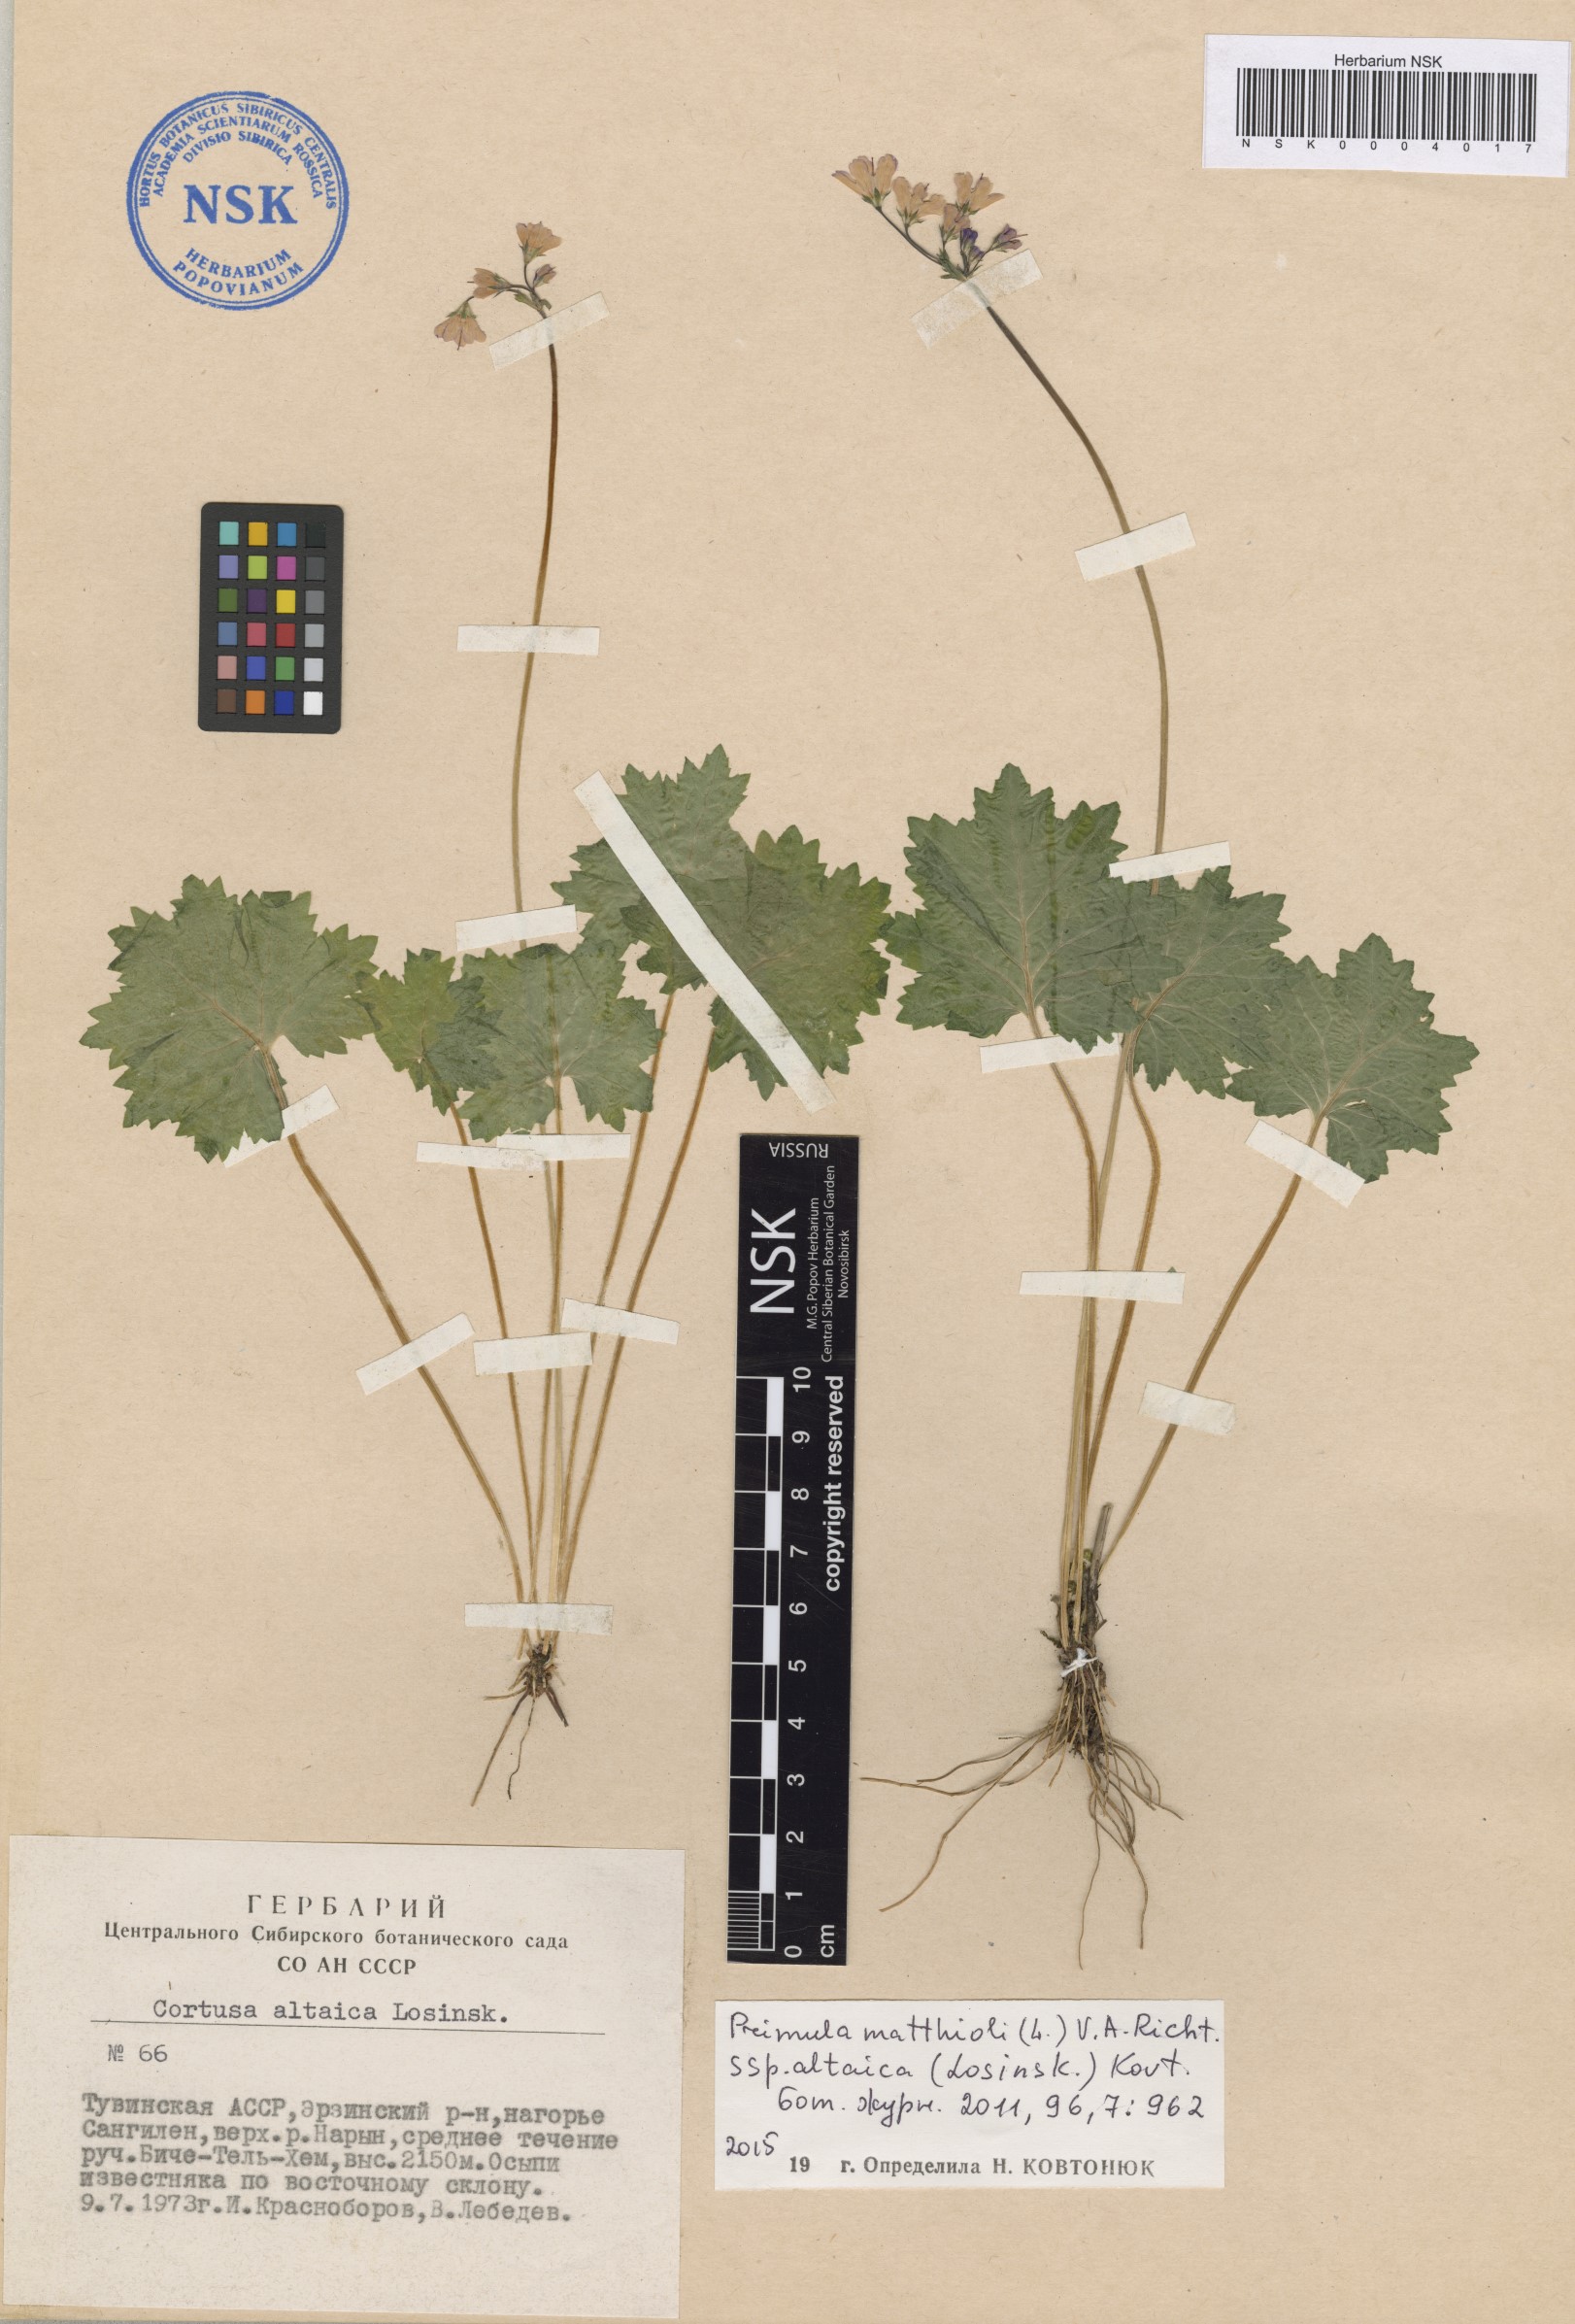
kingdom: Plantae
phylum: Tracheophyta
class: Magnoliopsida
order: Ericales
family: Primulaceae
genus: Primula
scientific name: Primula matthioli
